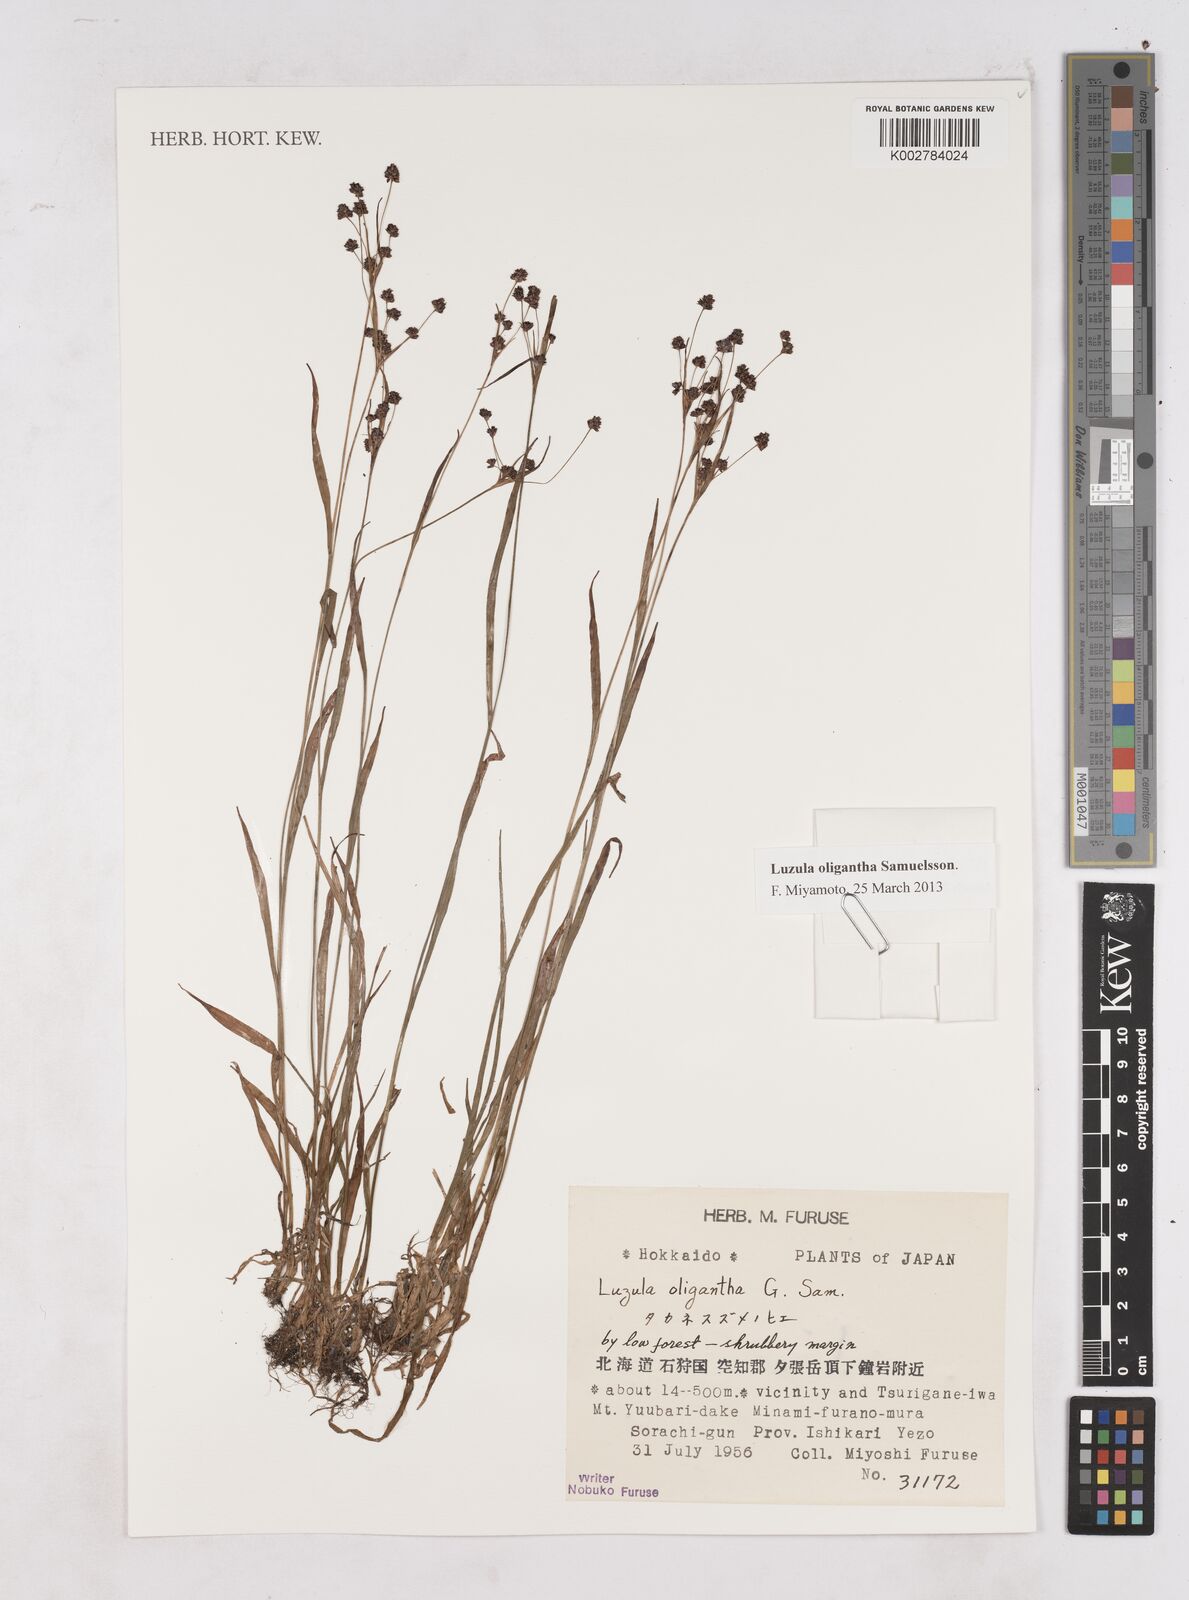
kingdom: Plantae
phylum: Tracheophyta
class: Liliopsida
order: Poales
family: Juncaceae
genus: Luzula
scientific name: Luzula oligantha
